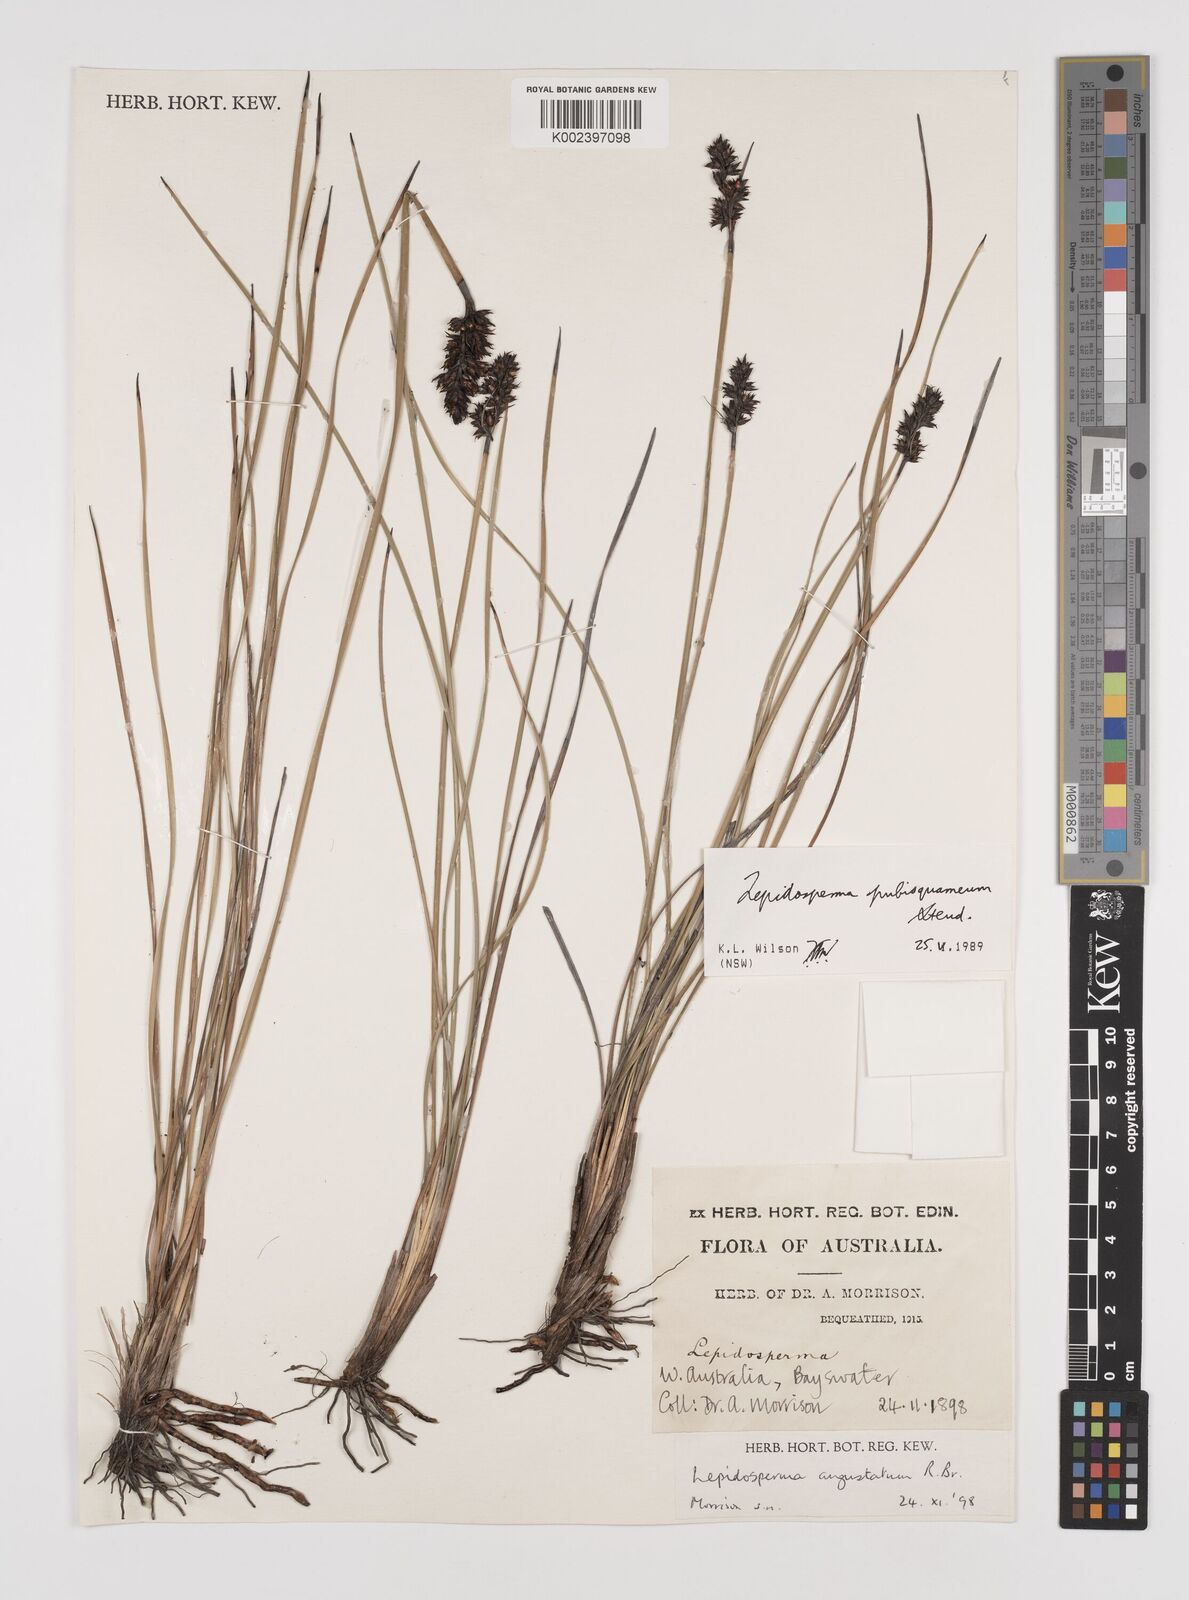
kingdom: Plantae
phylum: Tracheophyta
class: Liliopsida
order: Poales
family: Cyperaceae
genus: Lepidosperma
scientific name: Lepidosperma pubisquameum
